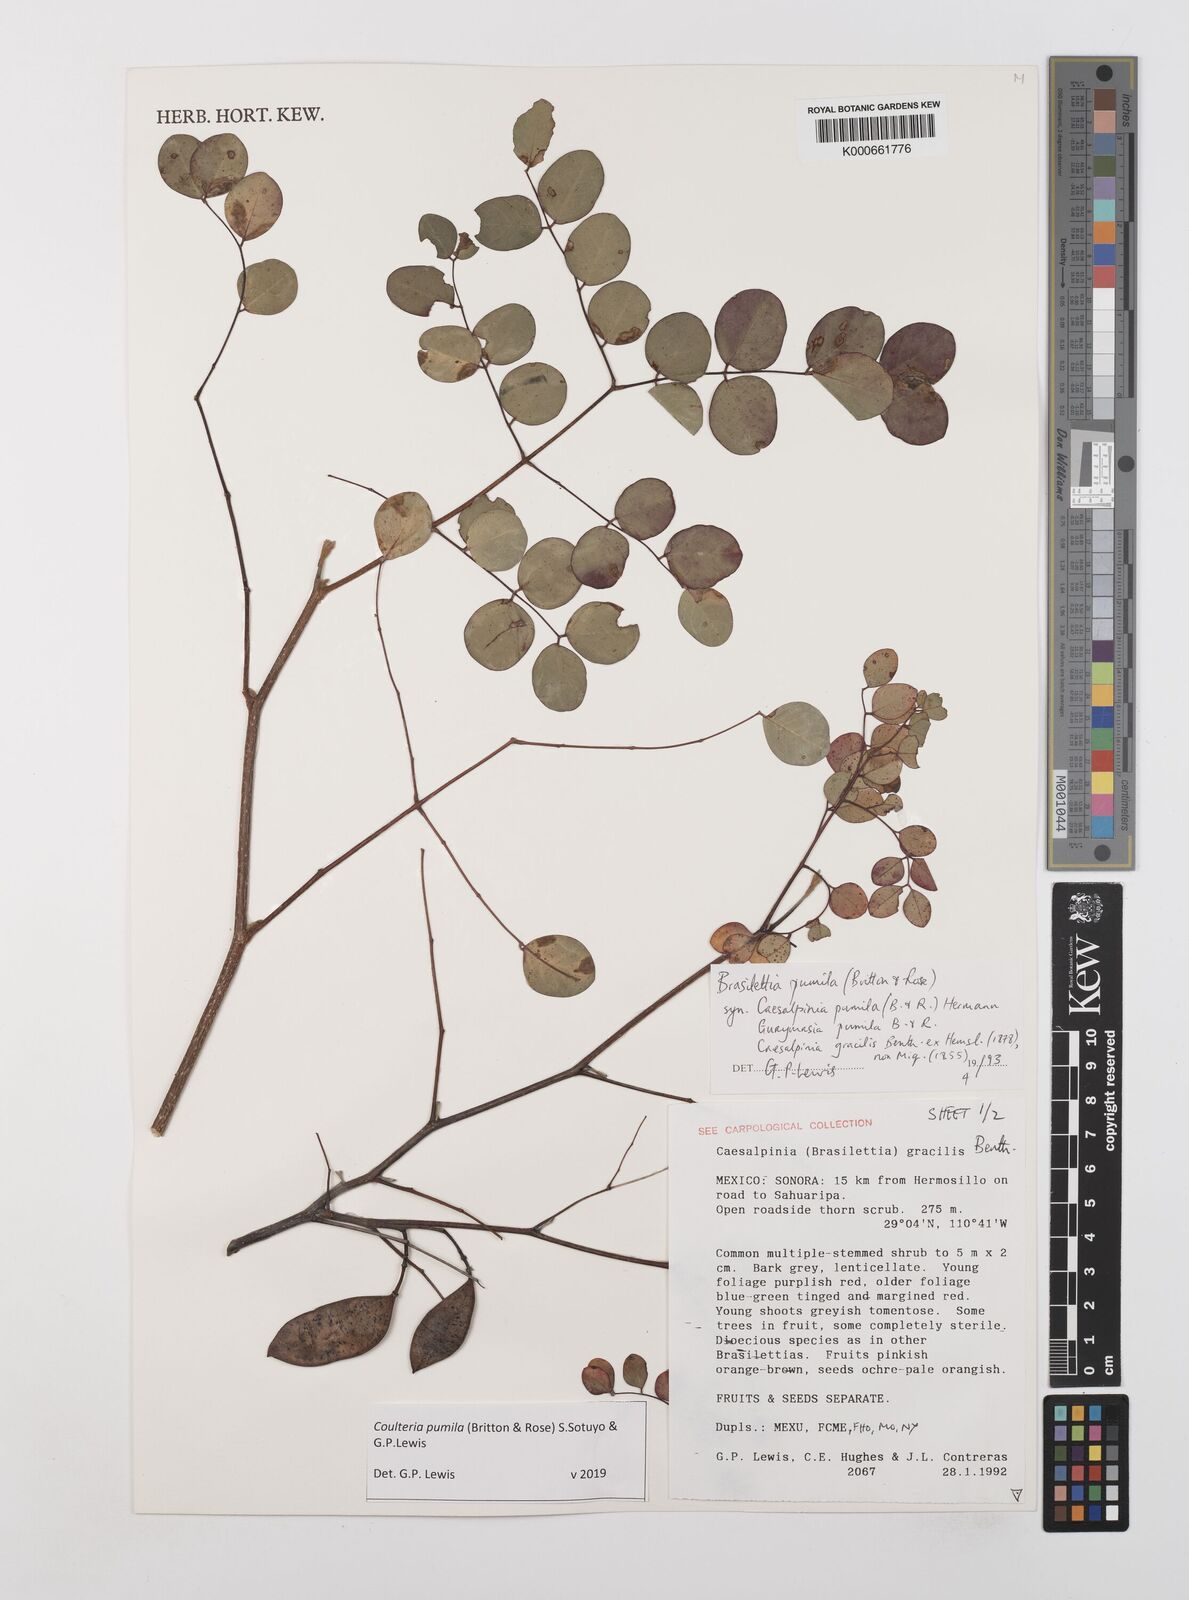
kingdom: Plantae
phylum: Tracheophyta
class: Magnoliopsida
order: Fabales
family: Fabaceae
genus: Coulteria
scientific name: Coulteria
